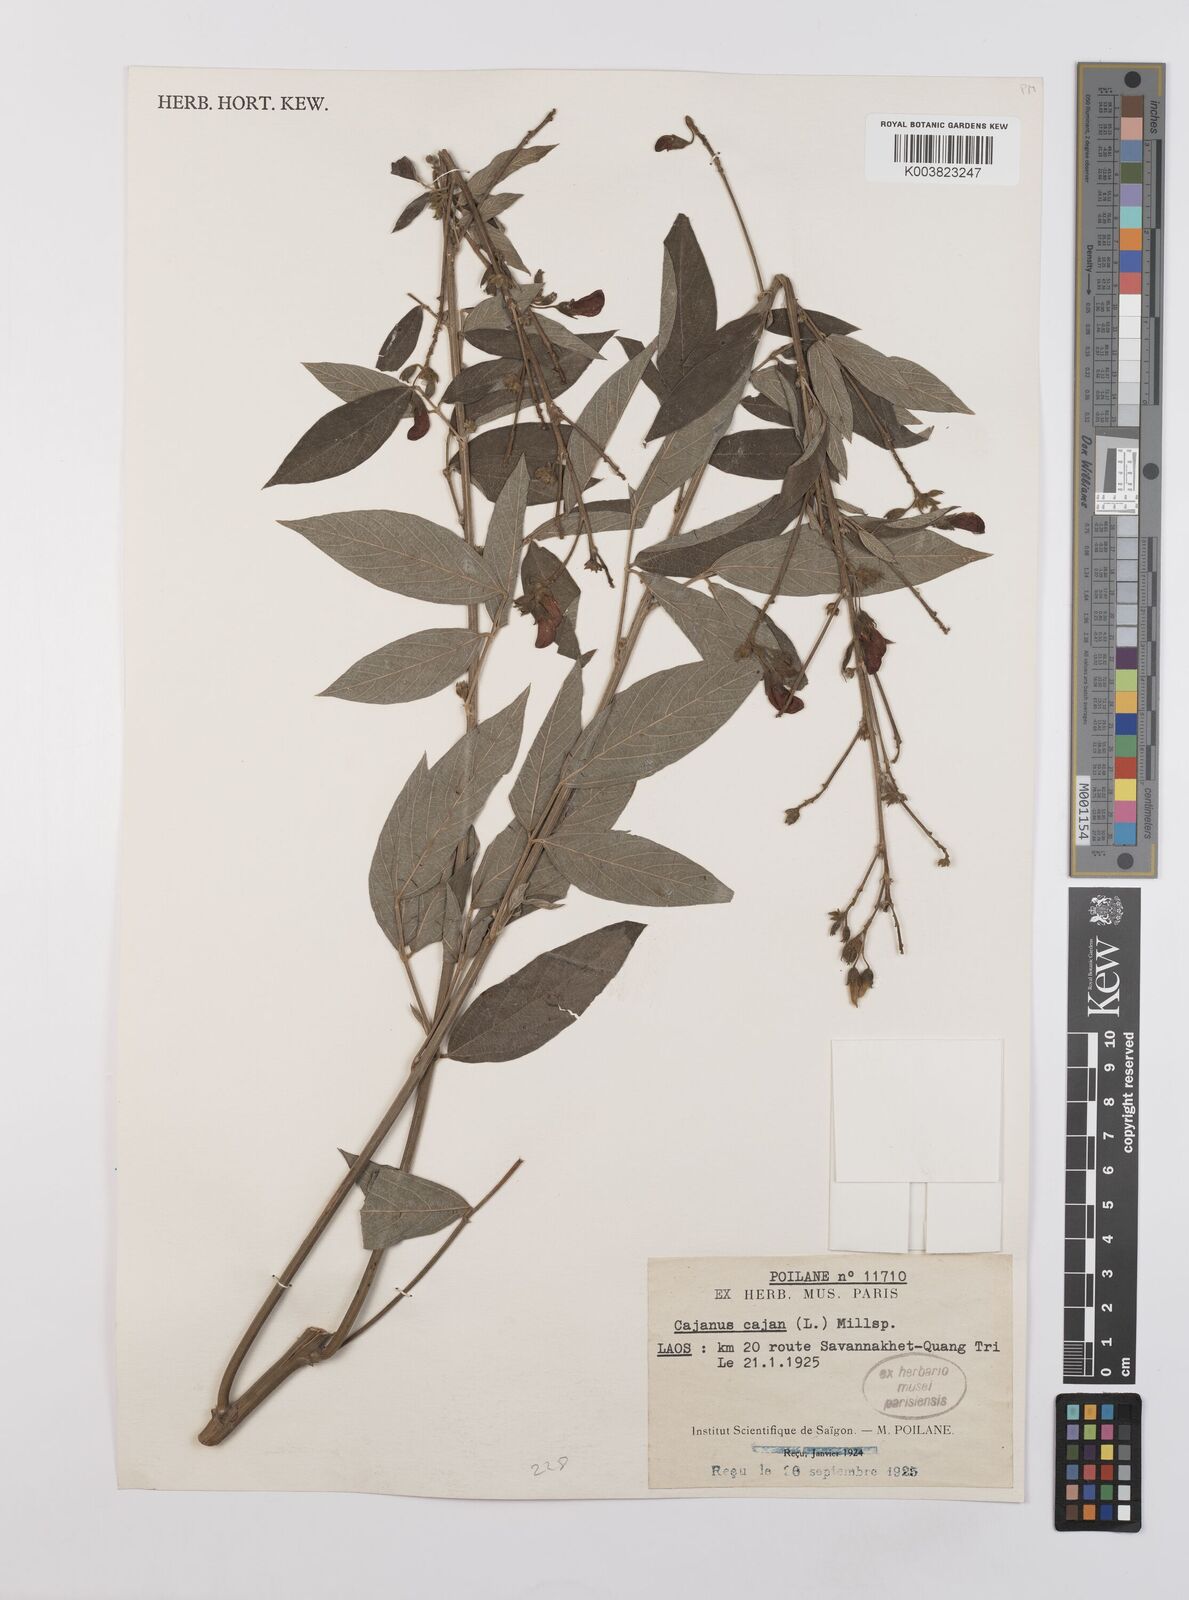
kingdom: Plantae
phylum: Tracheophyta
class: Magnoliopsida
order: Fabales
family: Fabaceae
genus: Cajanus
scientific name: Cajanus cajan
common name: Pigeonpea
